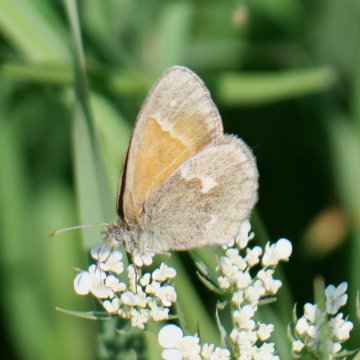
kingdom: Animalia
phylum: Arthropoda
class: Insecta
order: Lepidoptera
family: Nymphalidae
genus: Coenonympha
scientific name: Coenonympha tullia
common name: Large Heath
